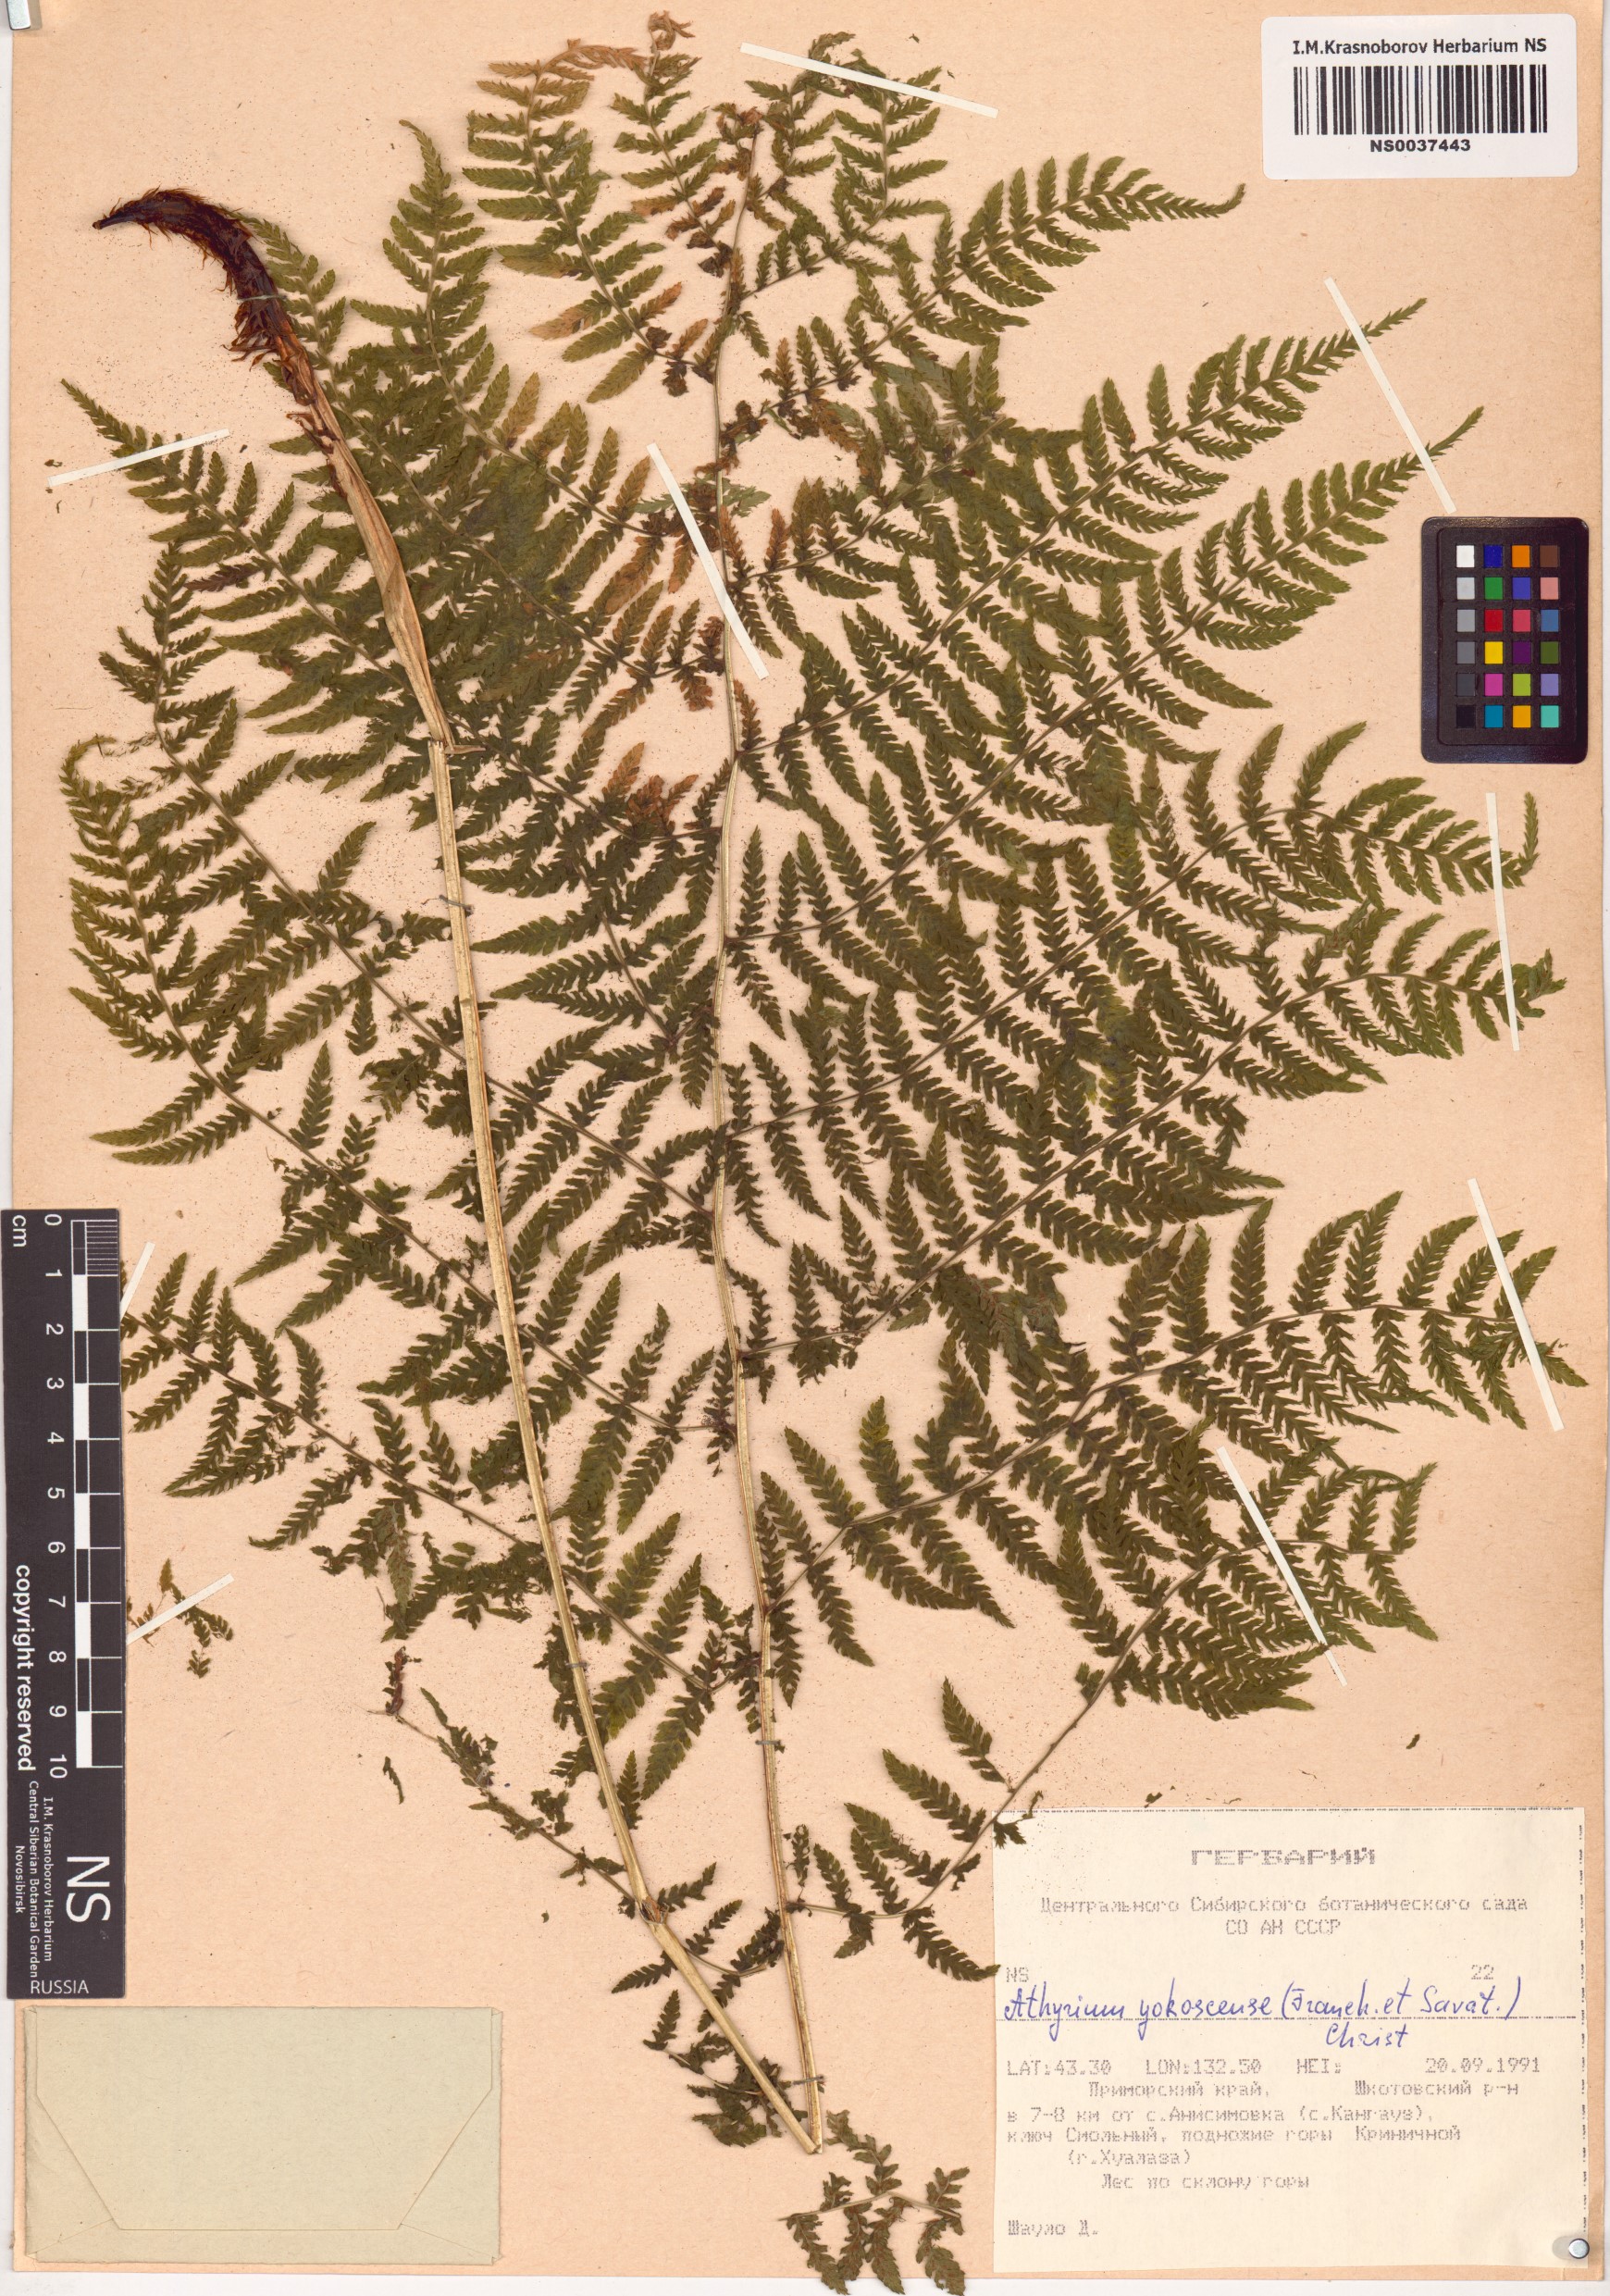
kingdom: Plantae
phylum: Tracheophyta
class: Polypodiopsida
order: Polypodiales
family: Athyriaceae
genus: Athyrium
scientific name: Athyrium yokoscense
